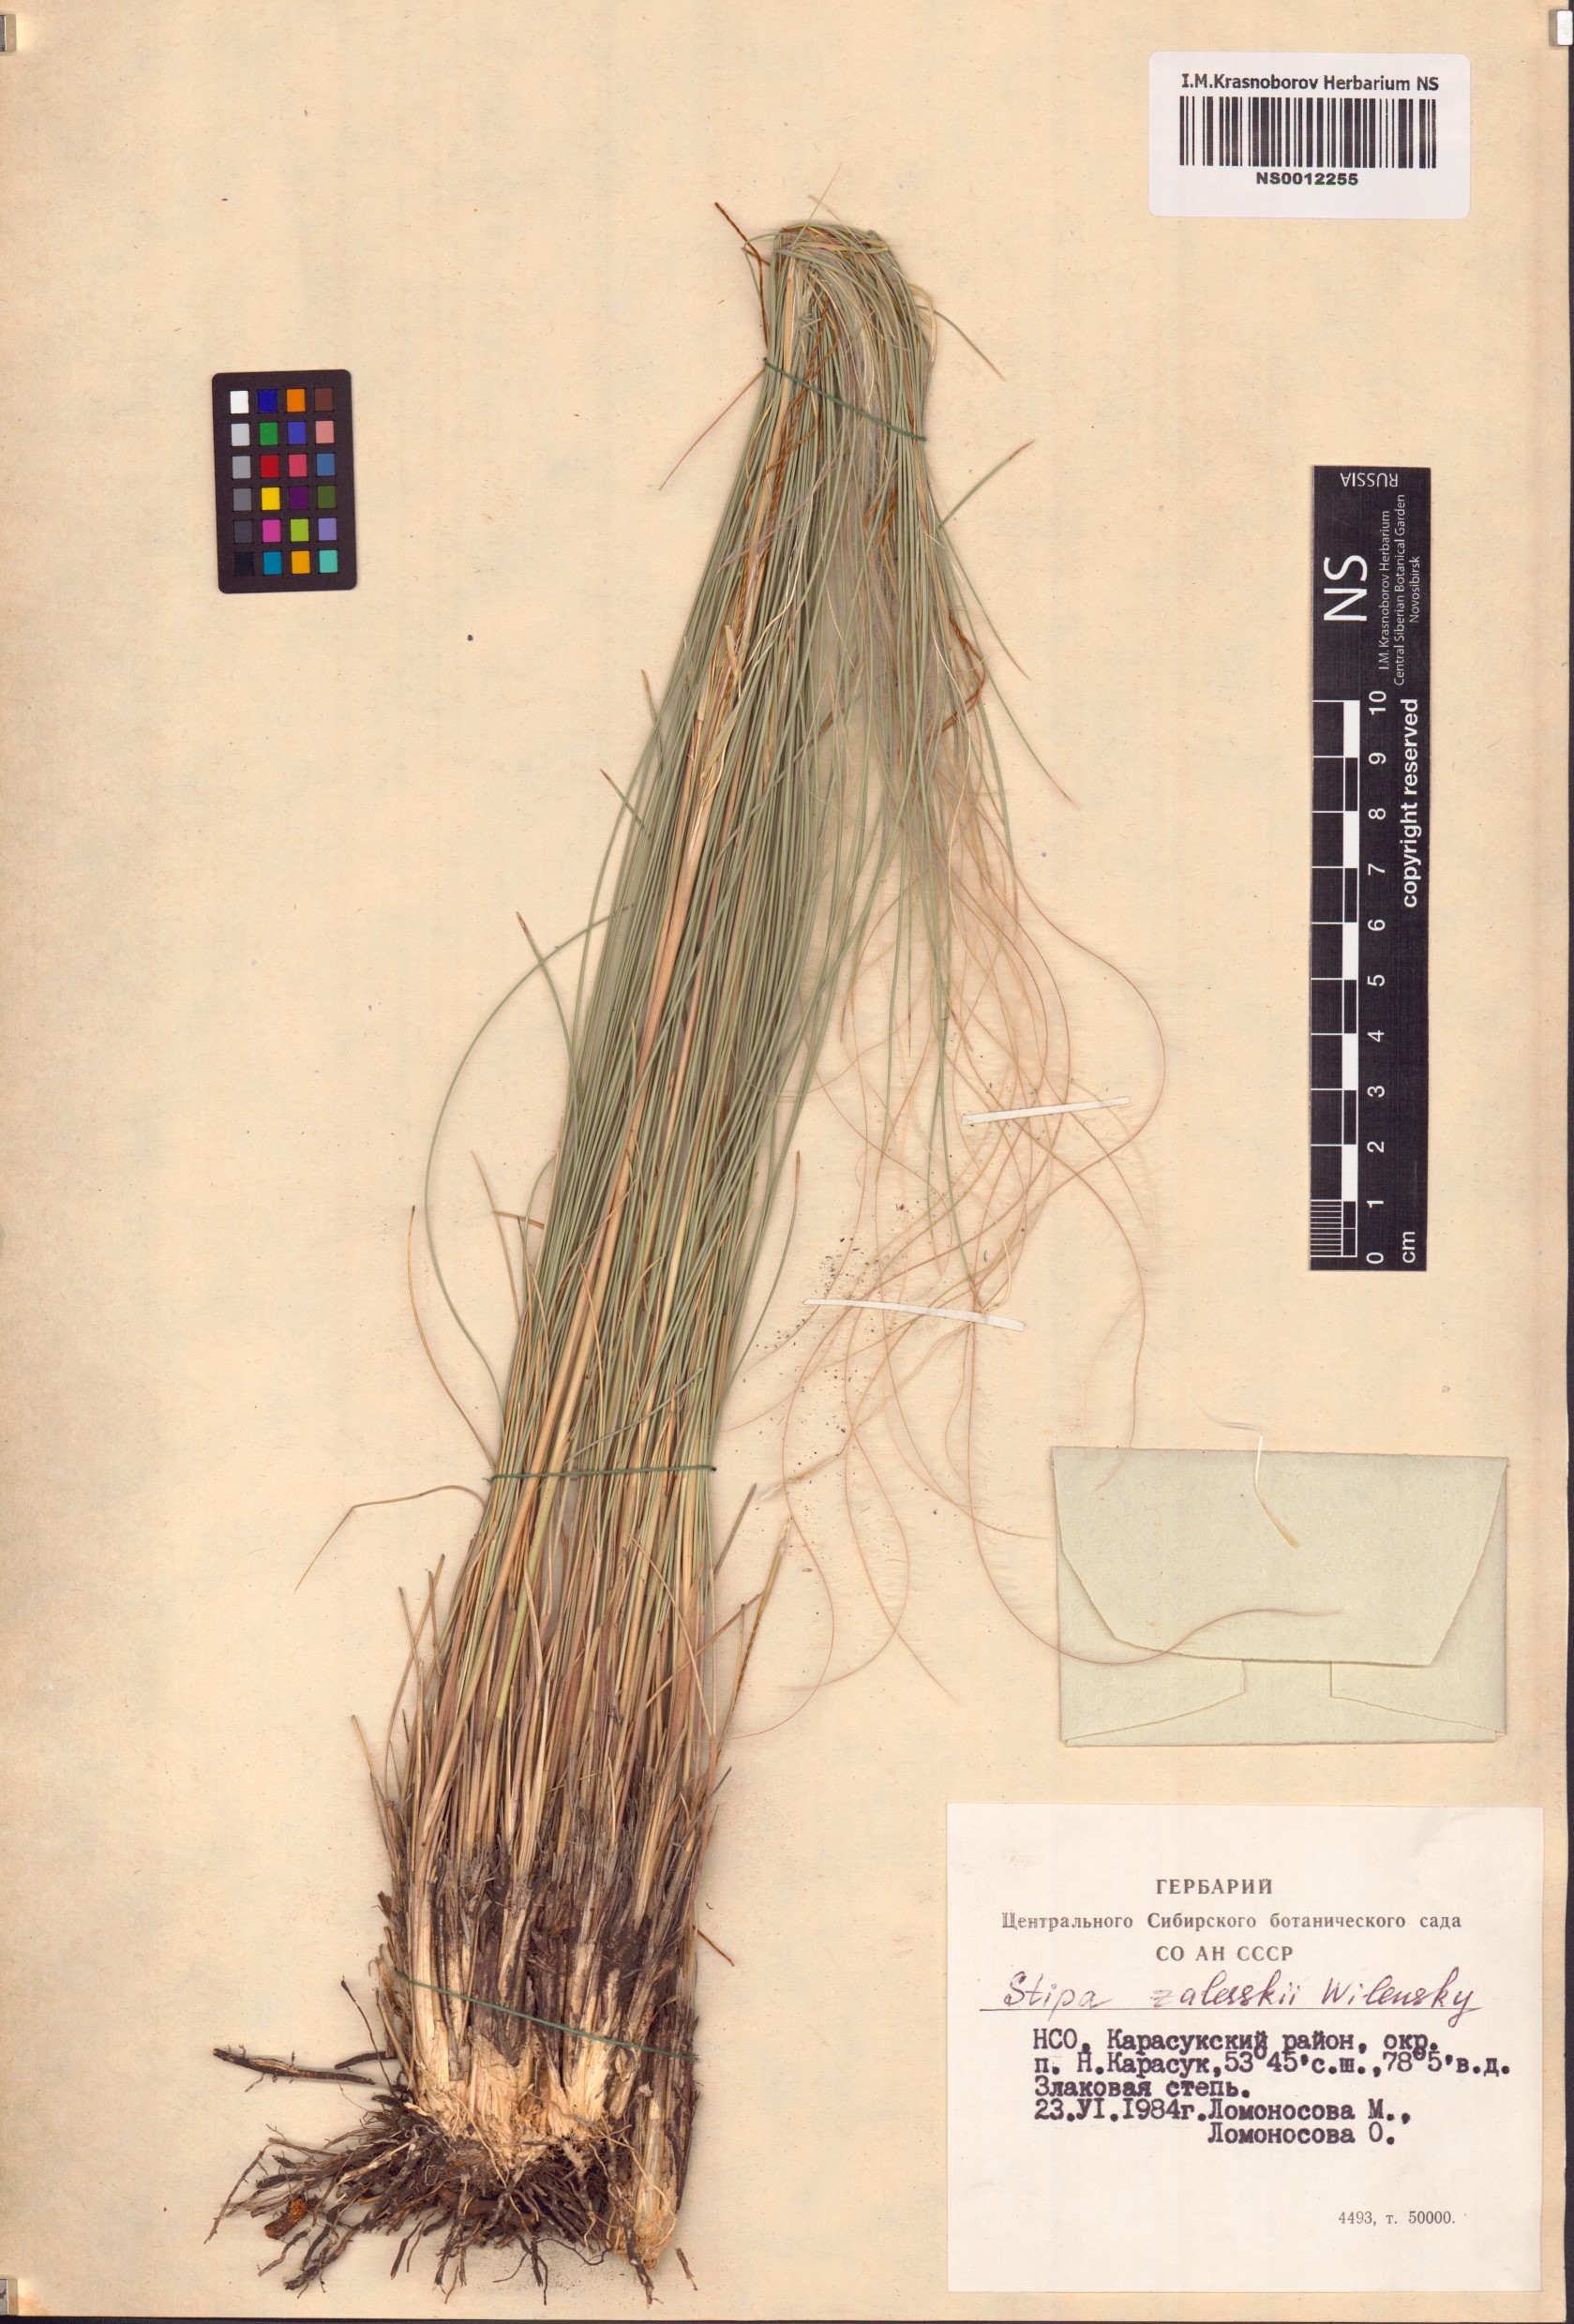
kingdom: Plantae
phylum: Tracheophyta
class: Liliopsida
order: Poales
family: Poaceae
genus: Stipa
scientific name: Stipa zalesskii
